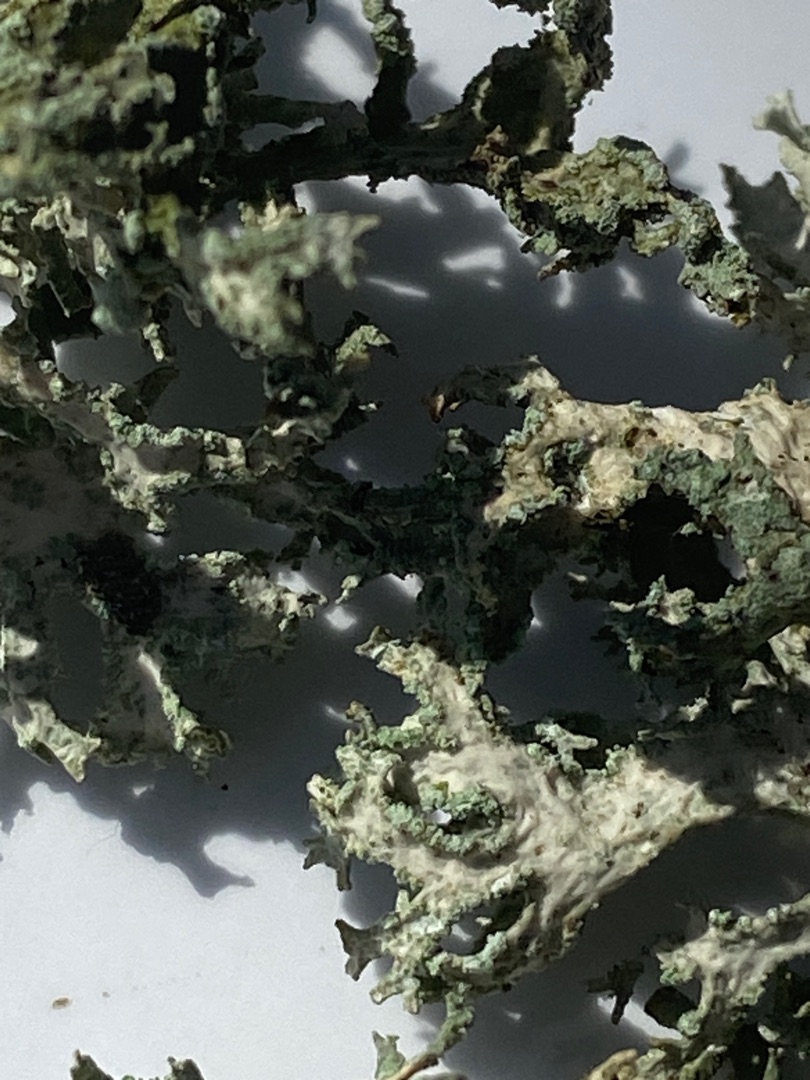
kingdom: Fungi
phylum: Ascomycota
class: Lecanoromycetes
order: Lecanorales
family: Parmeliaceae
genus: Evernia
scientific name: Evernia prunastri
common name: Almindelig slåenlav
